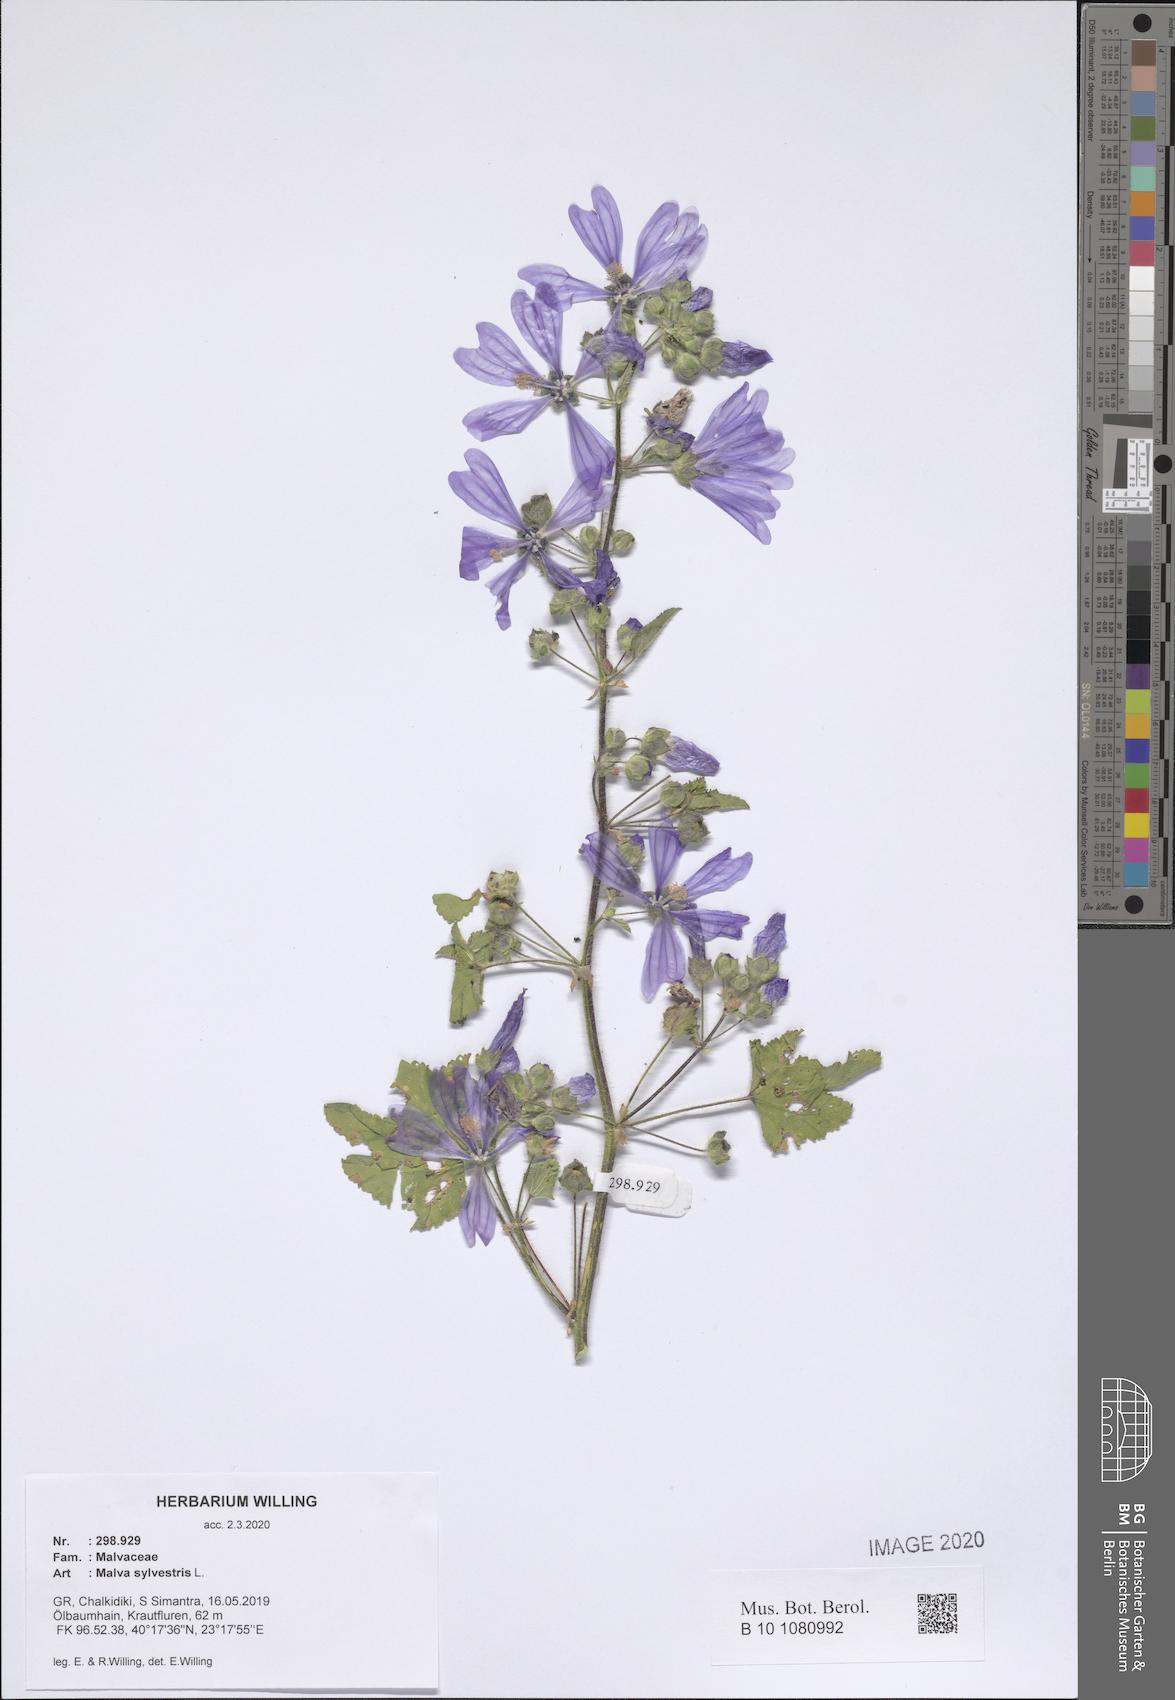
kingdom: Plantae
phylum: Tracheophyta
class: Magnoliopsida
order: Malvales
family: Malvaceae
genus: Malva
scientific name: Malva sylvestris
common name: Common mallow
